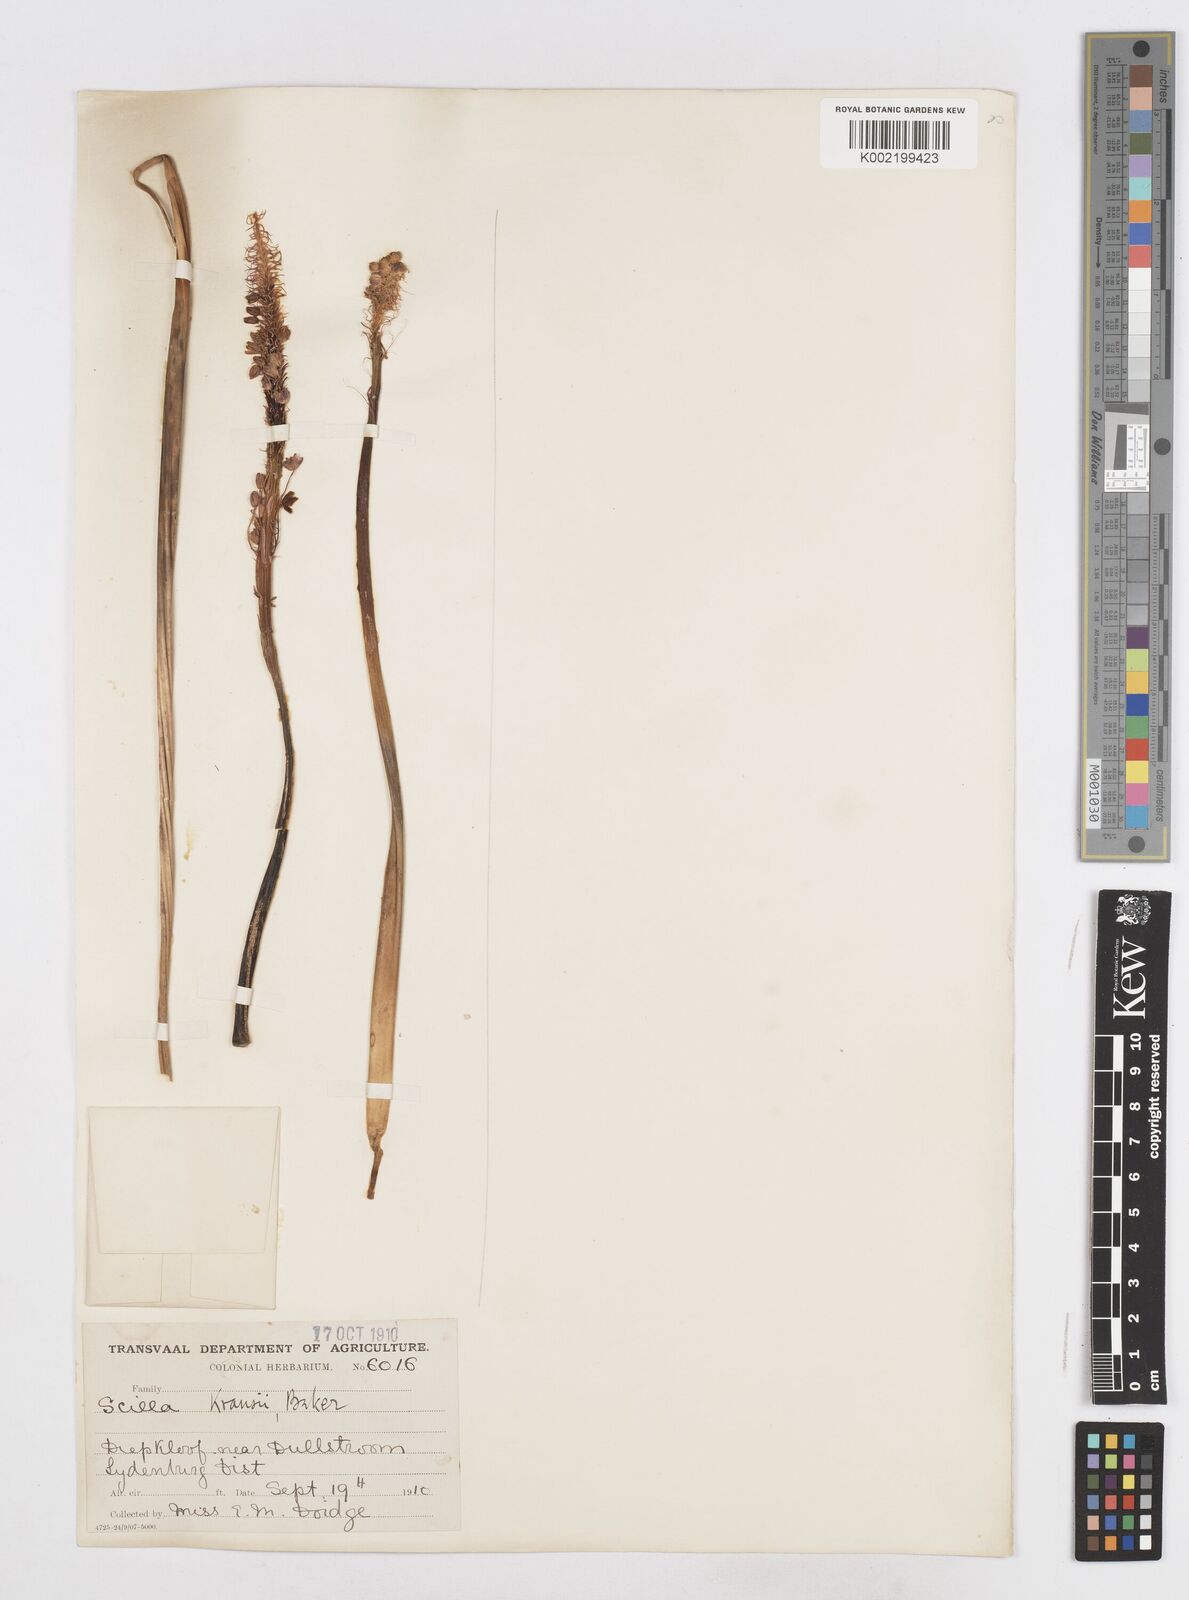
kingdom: Plantae
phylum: Tracheophyta
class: Liliopsida
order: Asparagales
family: Asparagaceae
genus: Schizocarphus
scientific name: Schizocarphus nervosus
